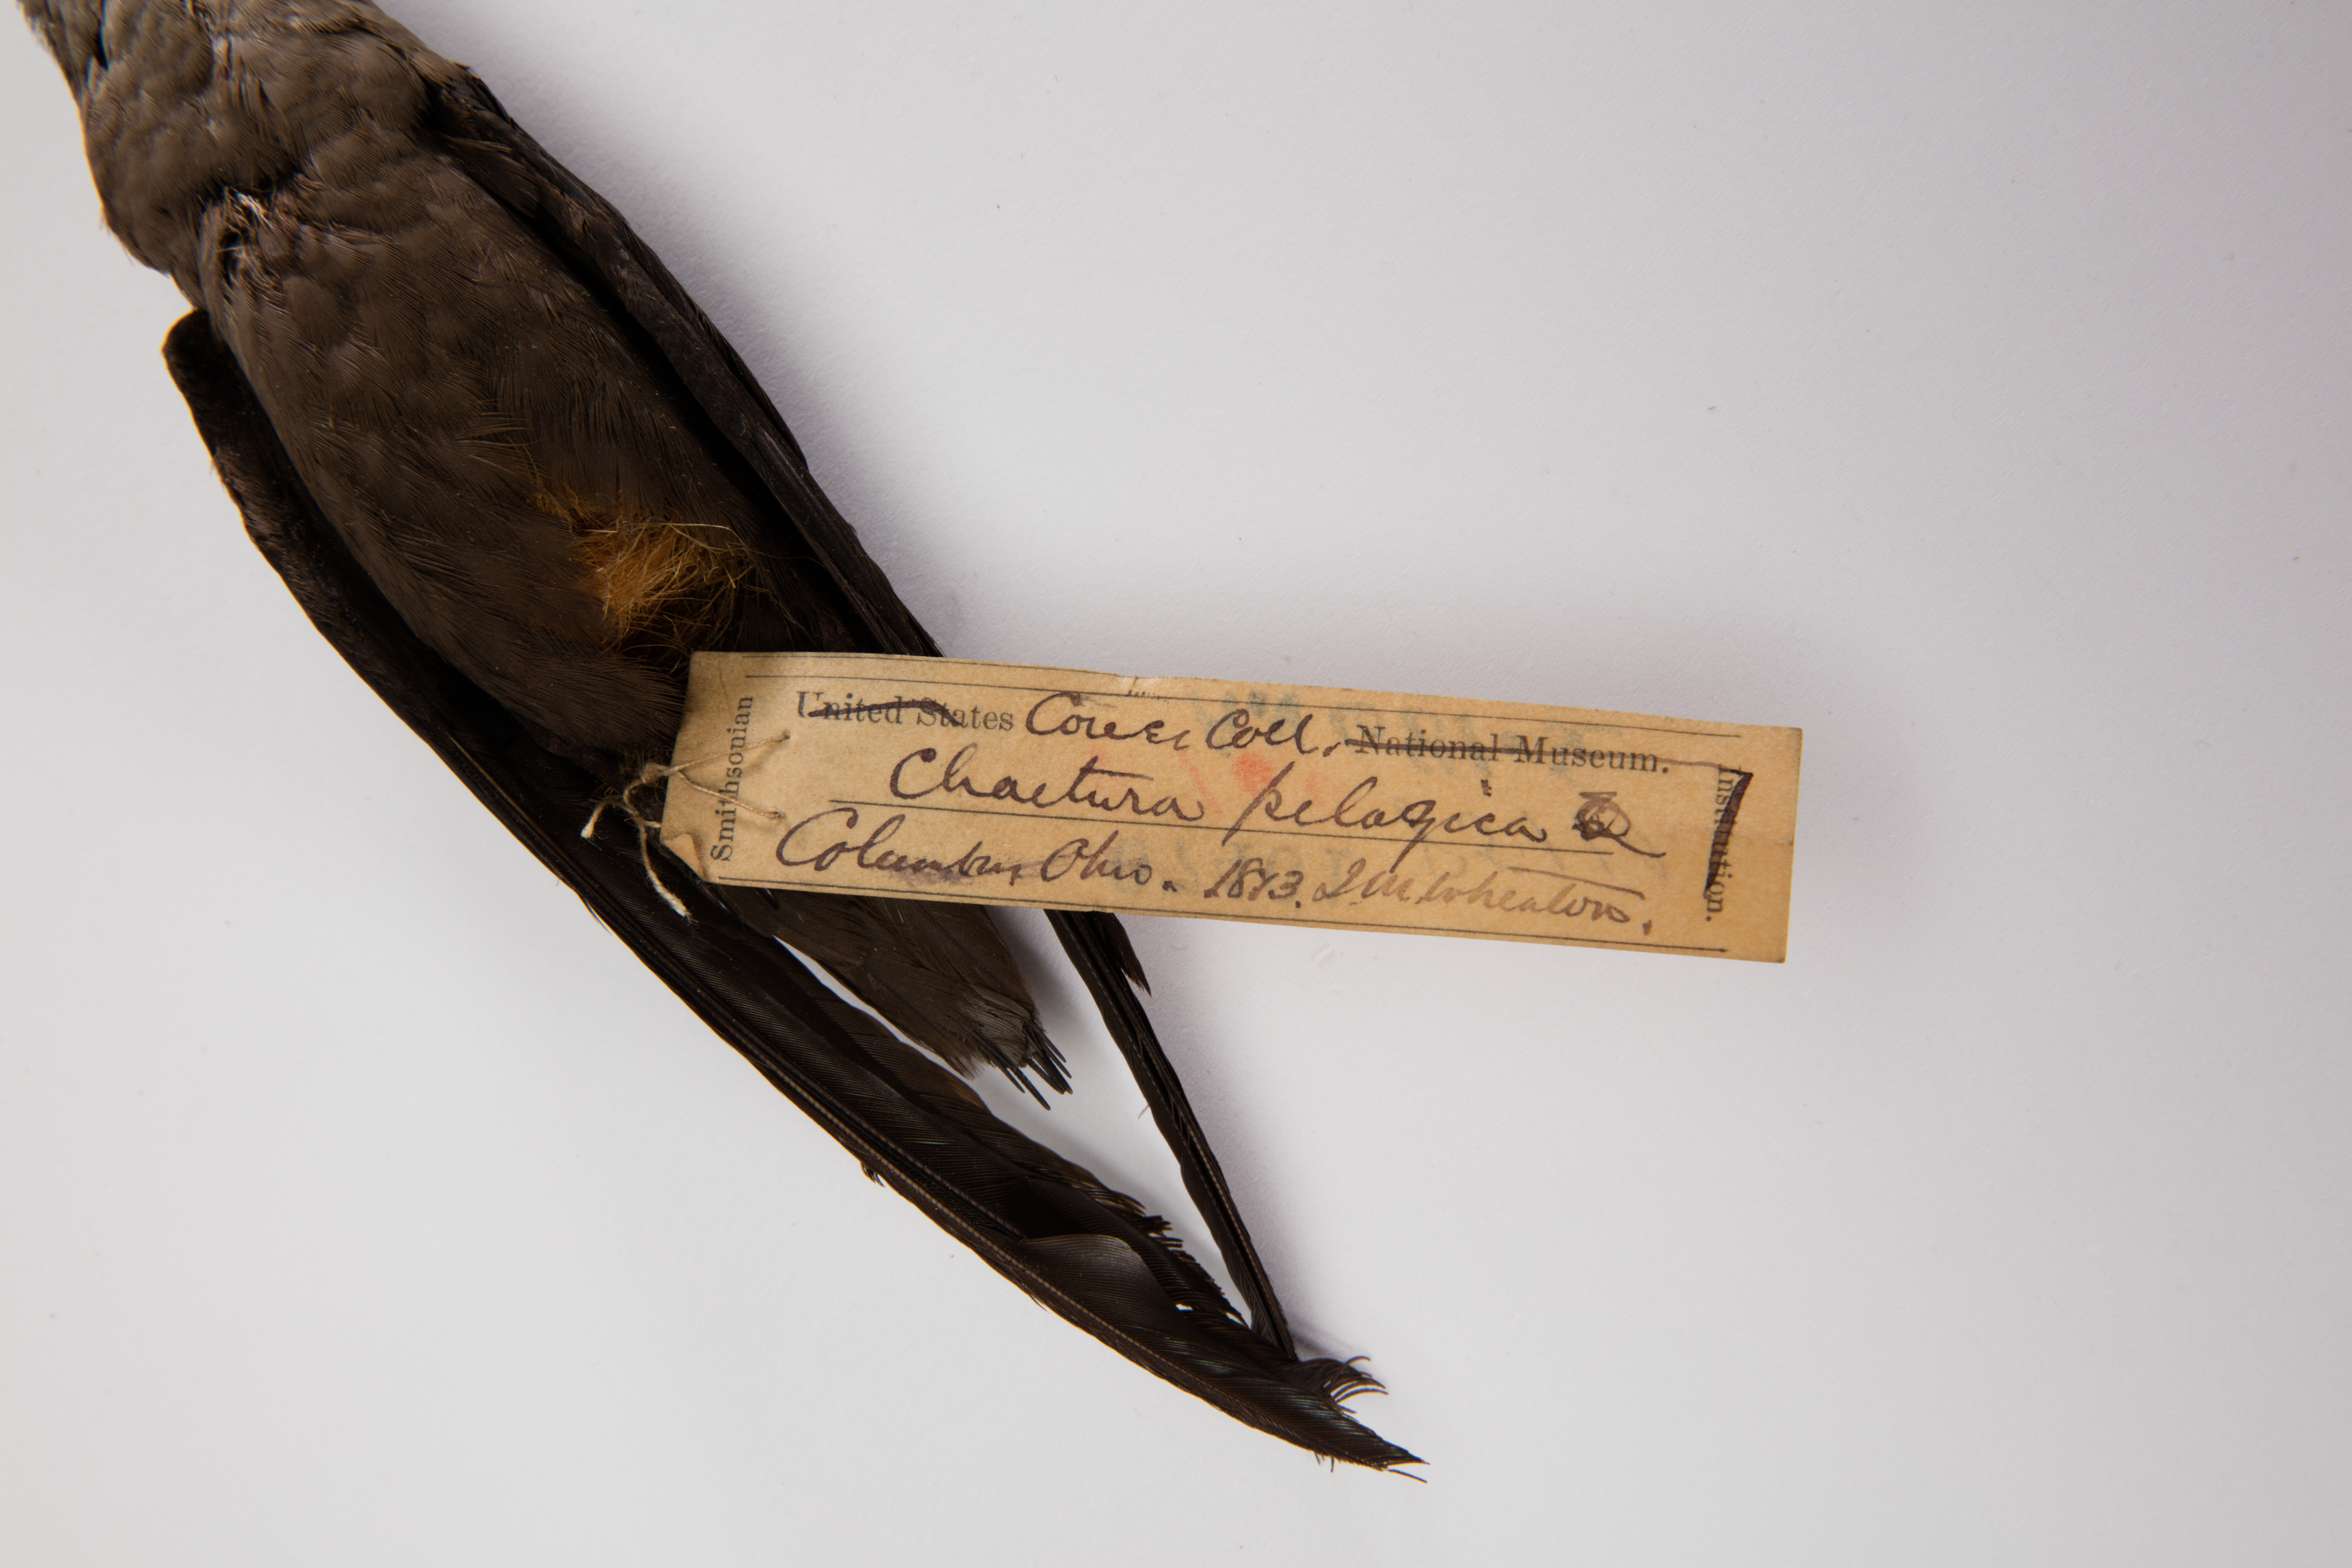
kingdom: Animalia
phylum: Chordata
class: Aves
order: Apodiformes
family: Apodidae
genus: Chaetura
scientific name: Chaetura pelagica
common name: Chimney swift
